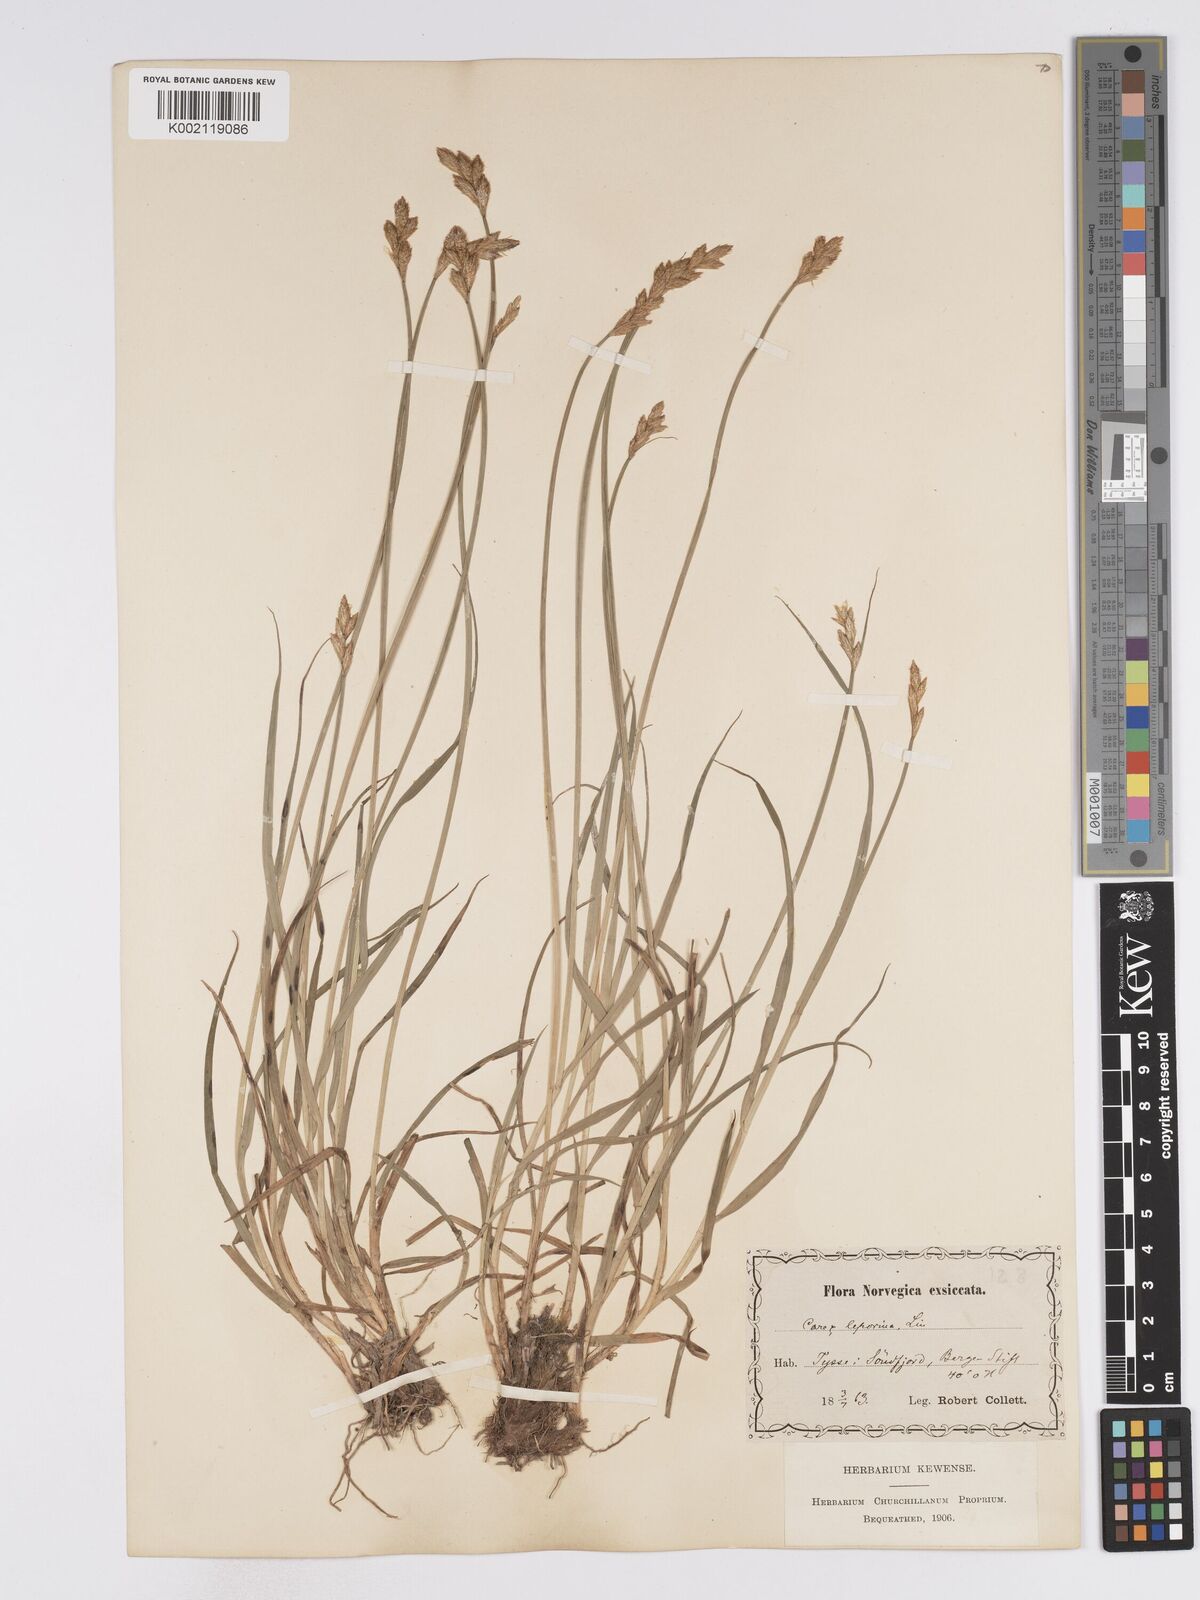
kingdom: Plantae
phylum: Tracheophyta
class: Liliopsida
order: Poales
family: Cyperaceae
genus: Carex
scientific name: Carex leporina
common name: Oval sedge
